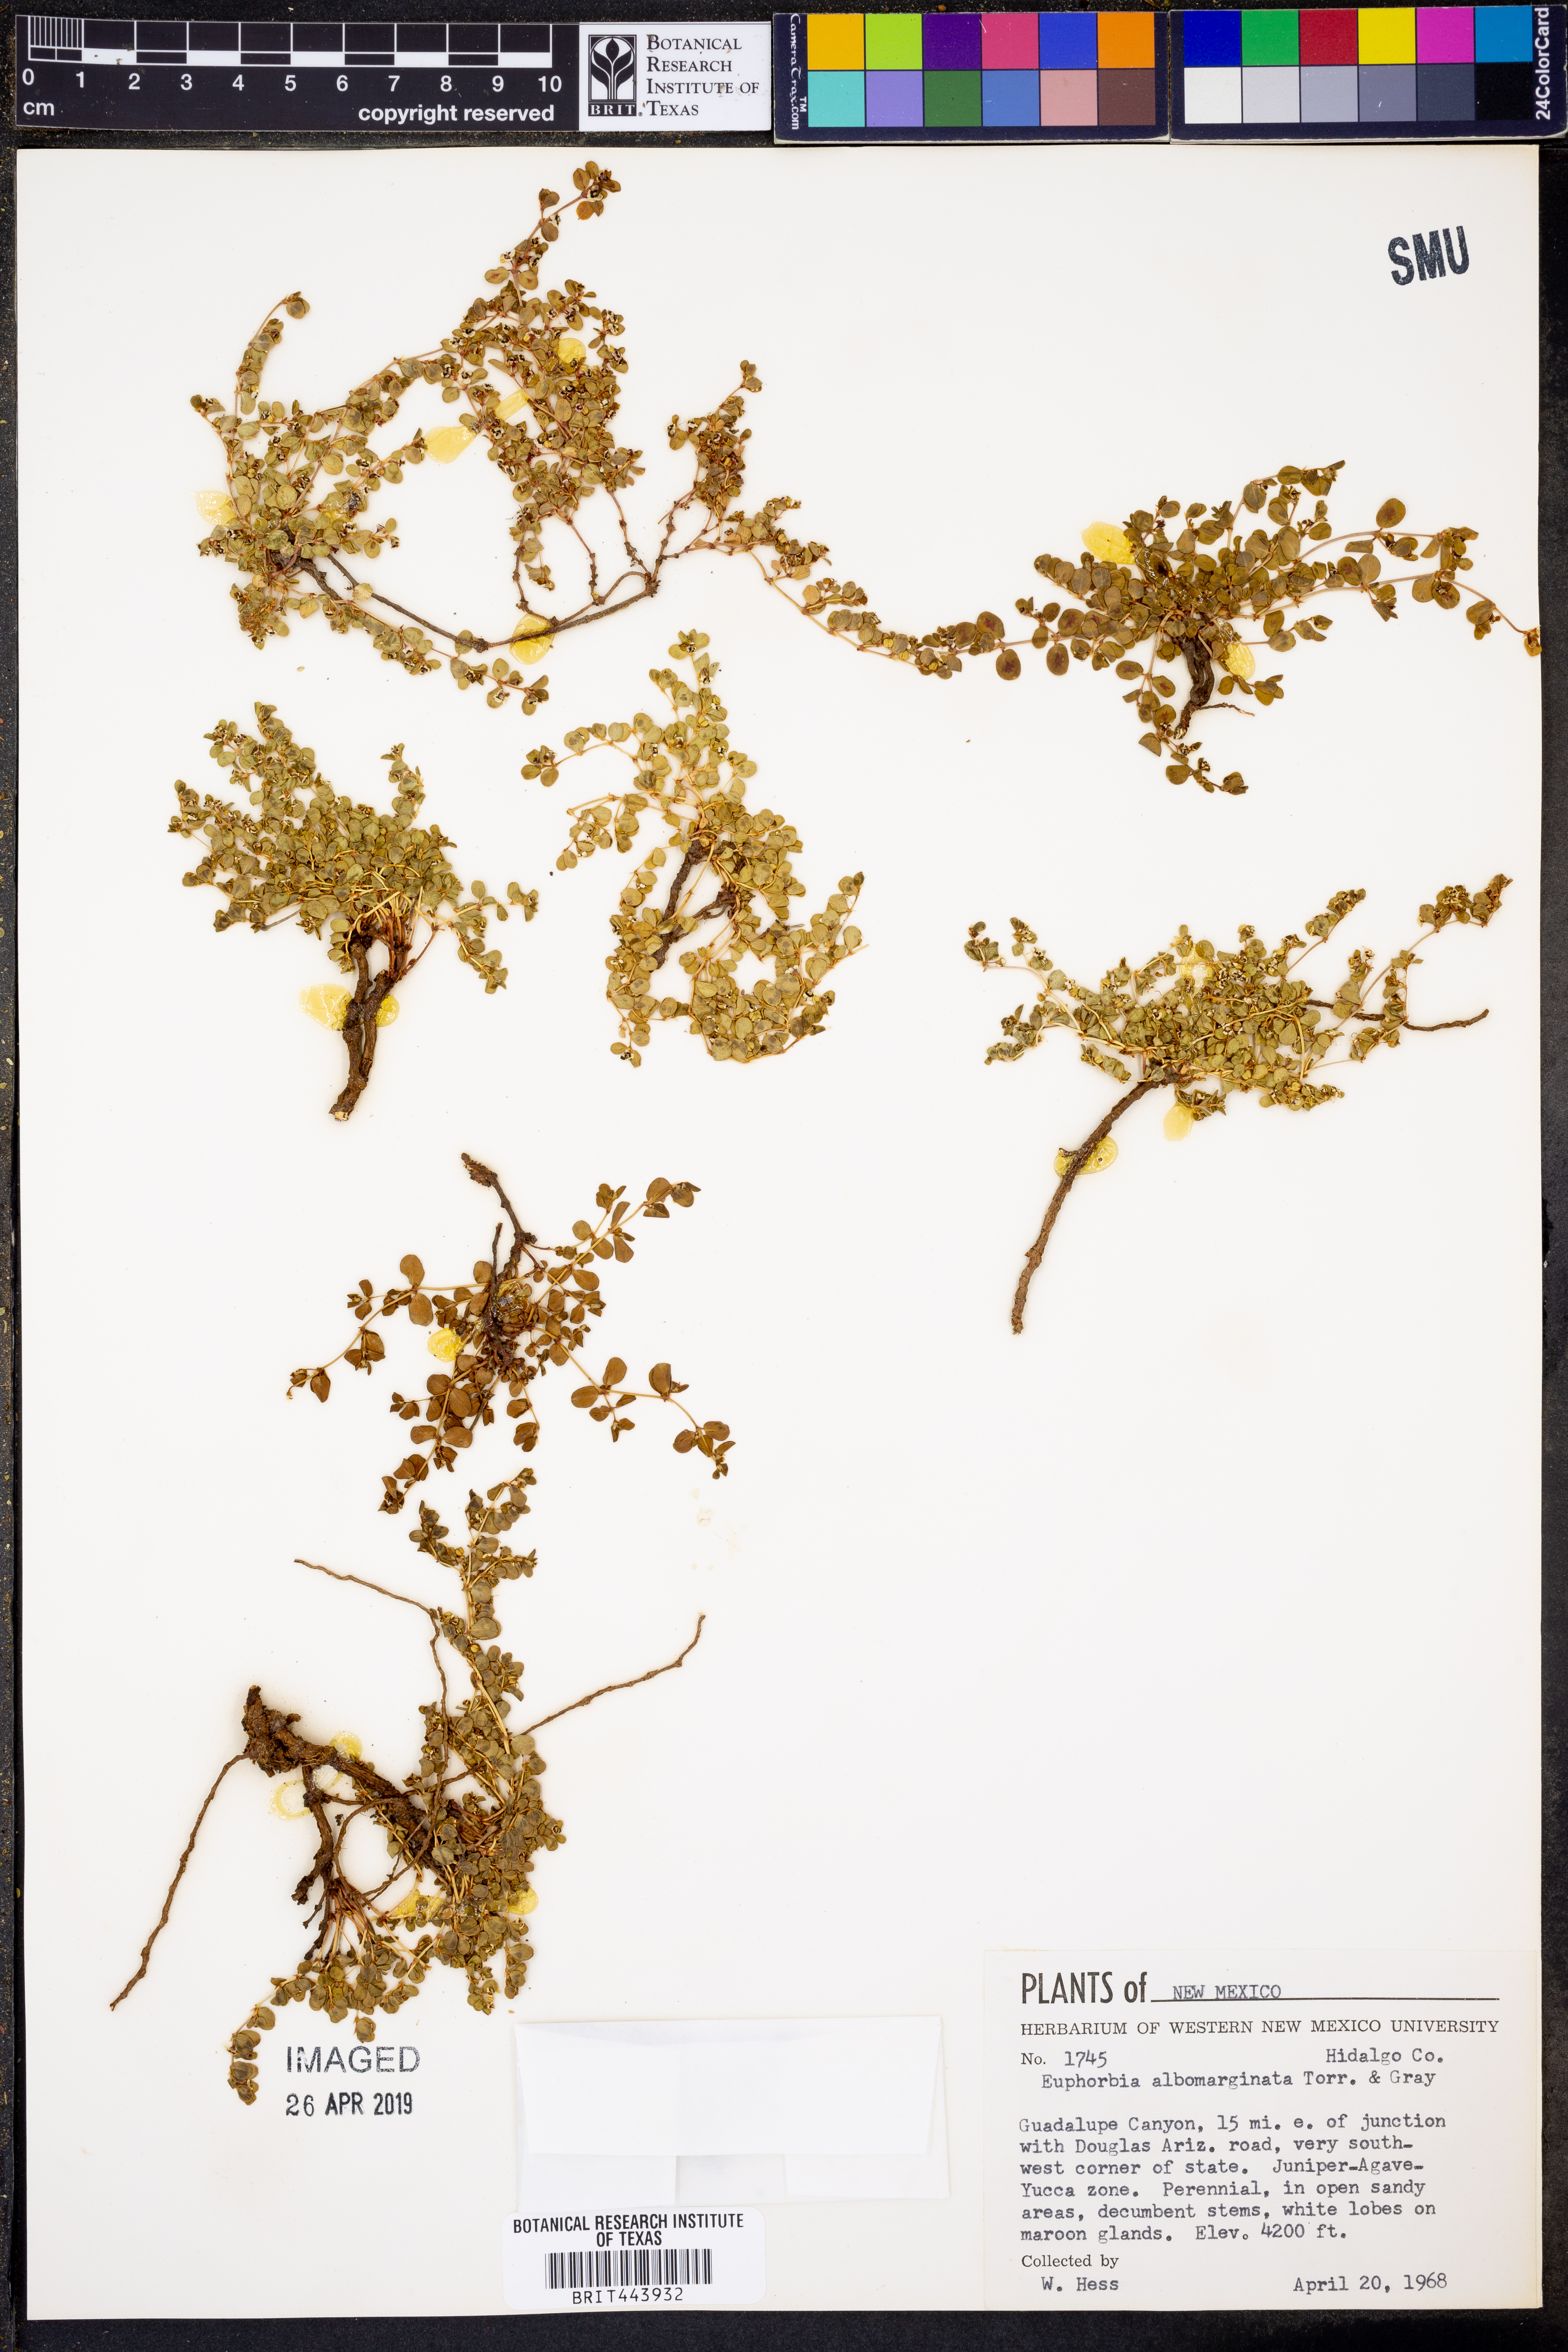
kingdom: Plantae
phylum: Tracheophyta
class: Magnoliopsida
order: Malpighiales
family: Euphorbiaceae
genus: Euphorbia
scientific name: Euphorbia albomarginata
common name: Whitemargin sandmat
